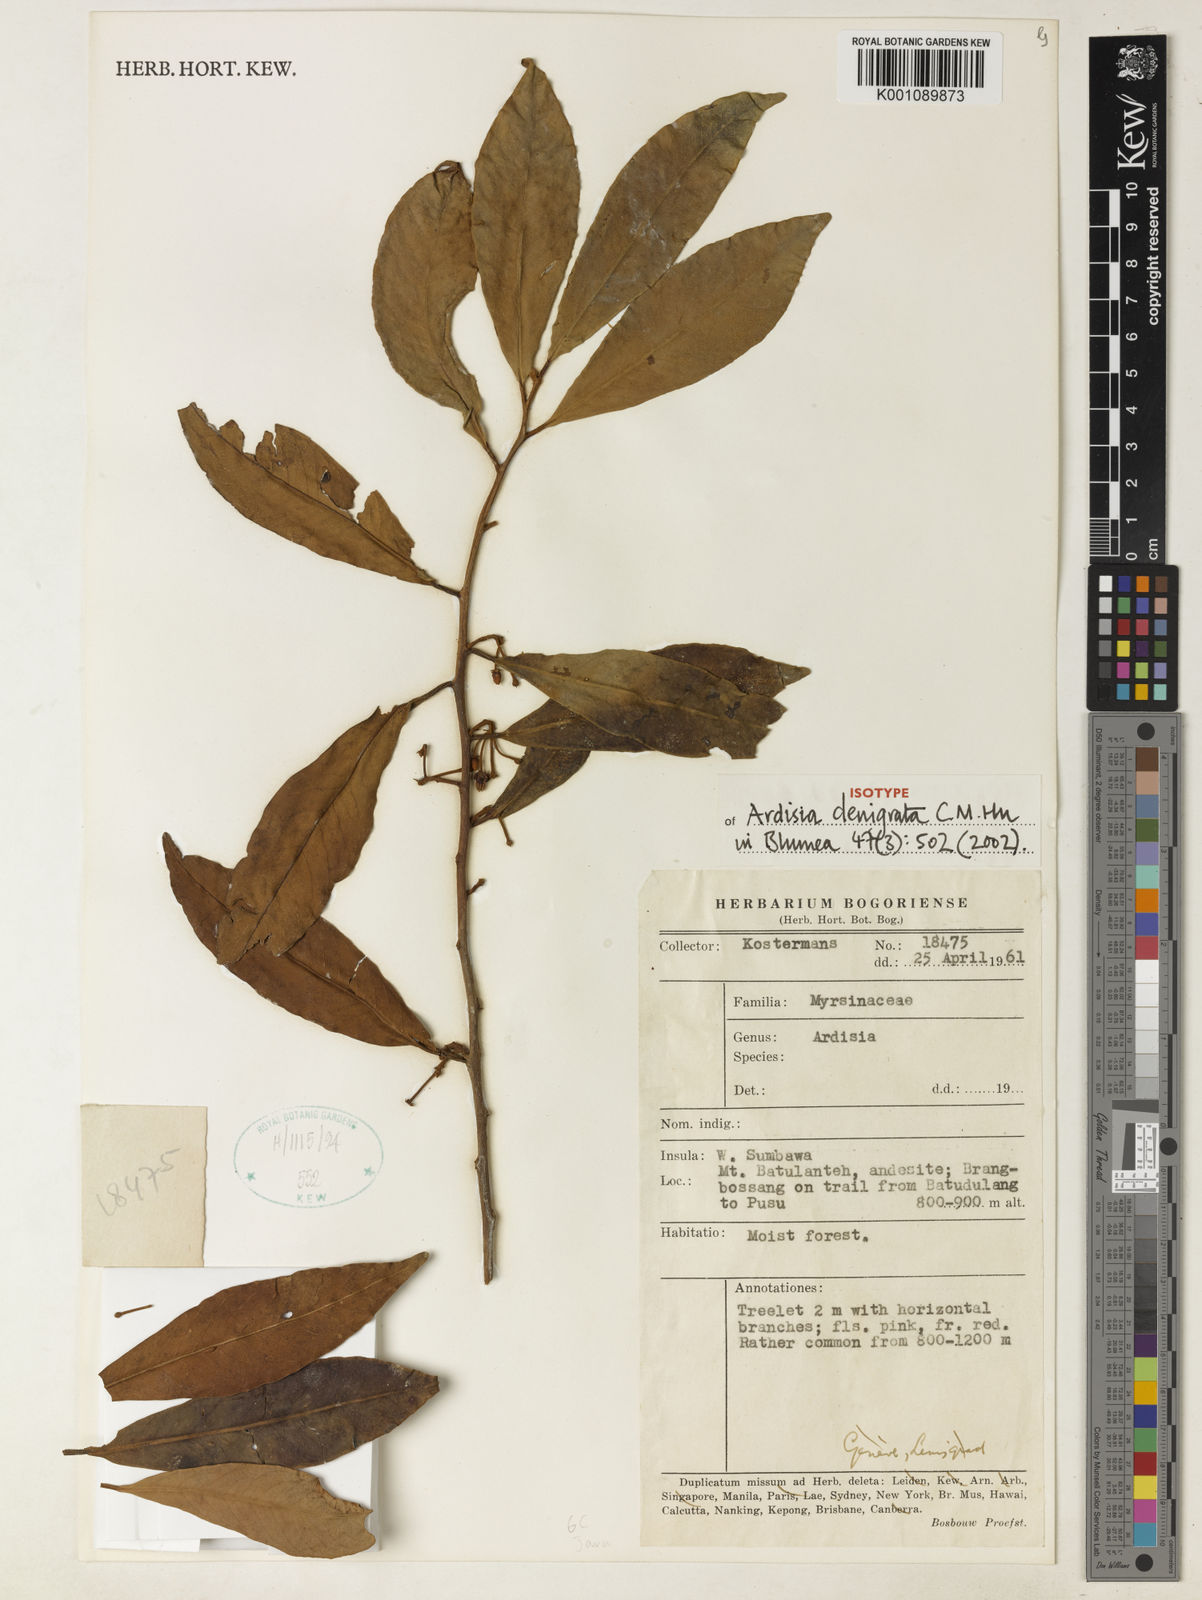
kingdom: Plantae
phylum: Tracheophyta
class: Magnoliopsida
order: Ericales
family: Primulaceae
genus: Ardisia
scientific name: Ardisia denigrata
